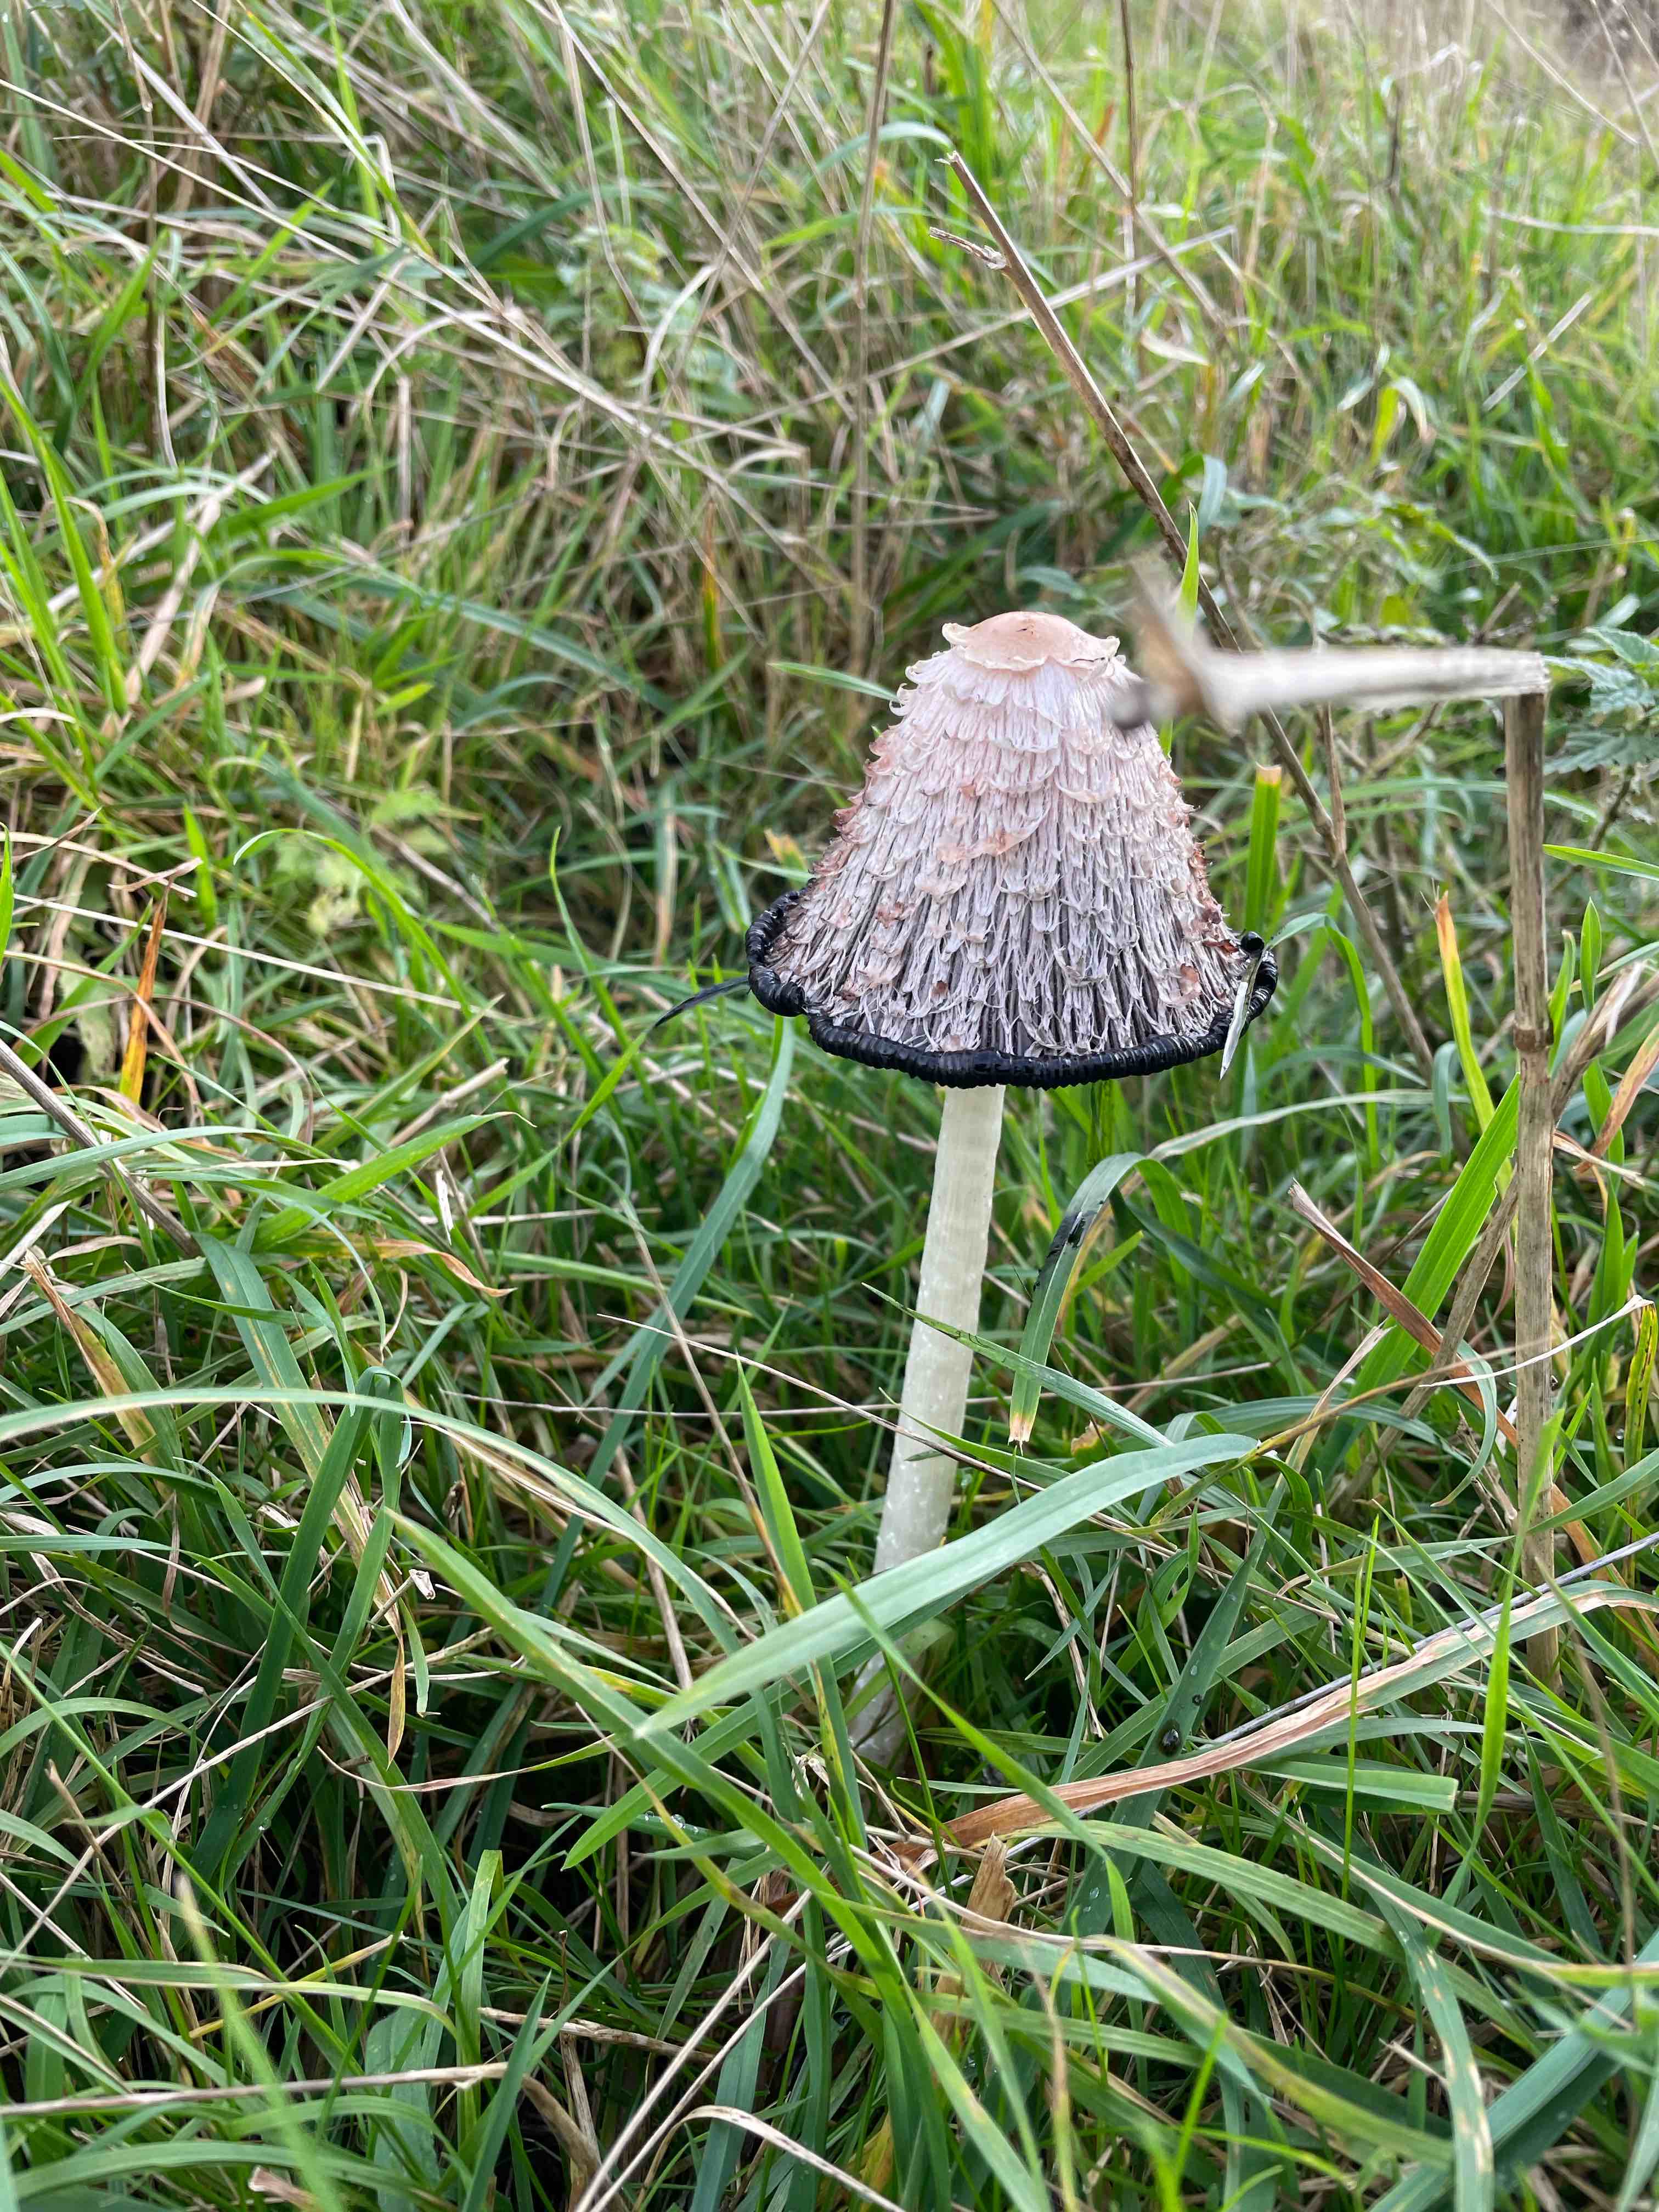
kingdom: Fungi
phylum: Basidiomycota
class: Agaricomycetes
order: Agaricales
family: Agaricaceae
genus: Coprinus
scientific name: Coprinus comatus
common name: stor parykhat
